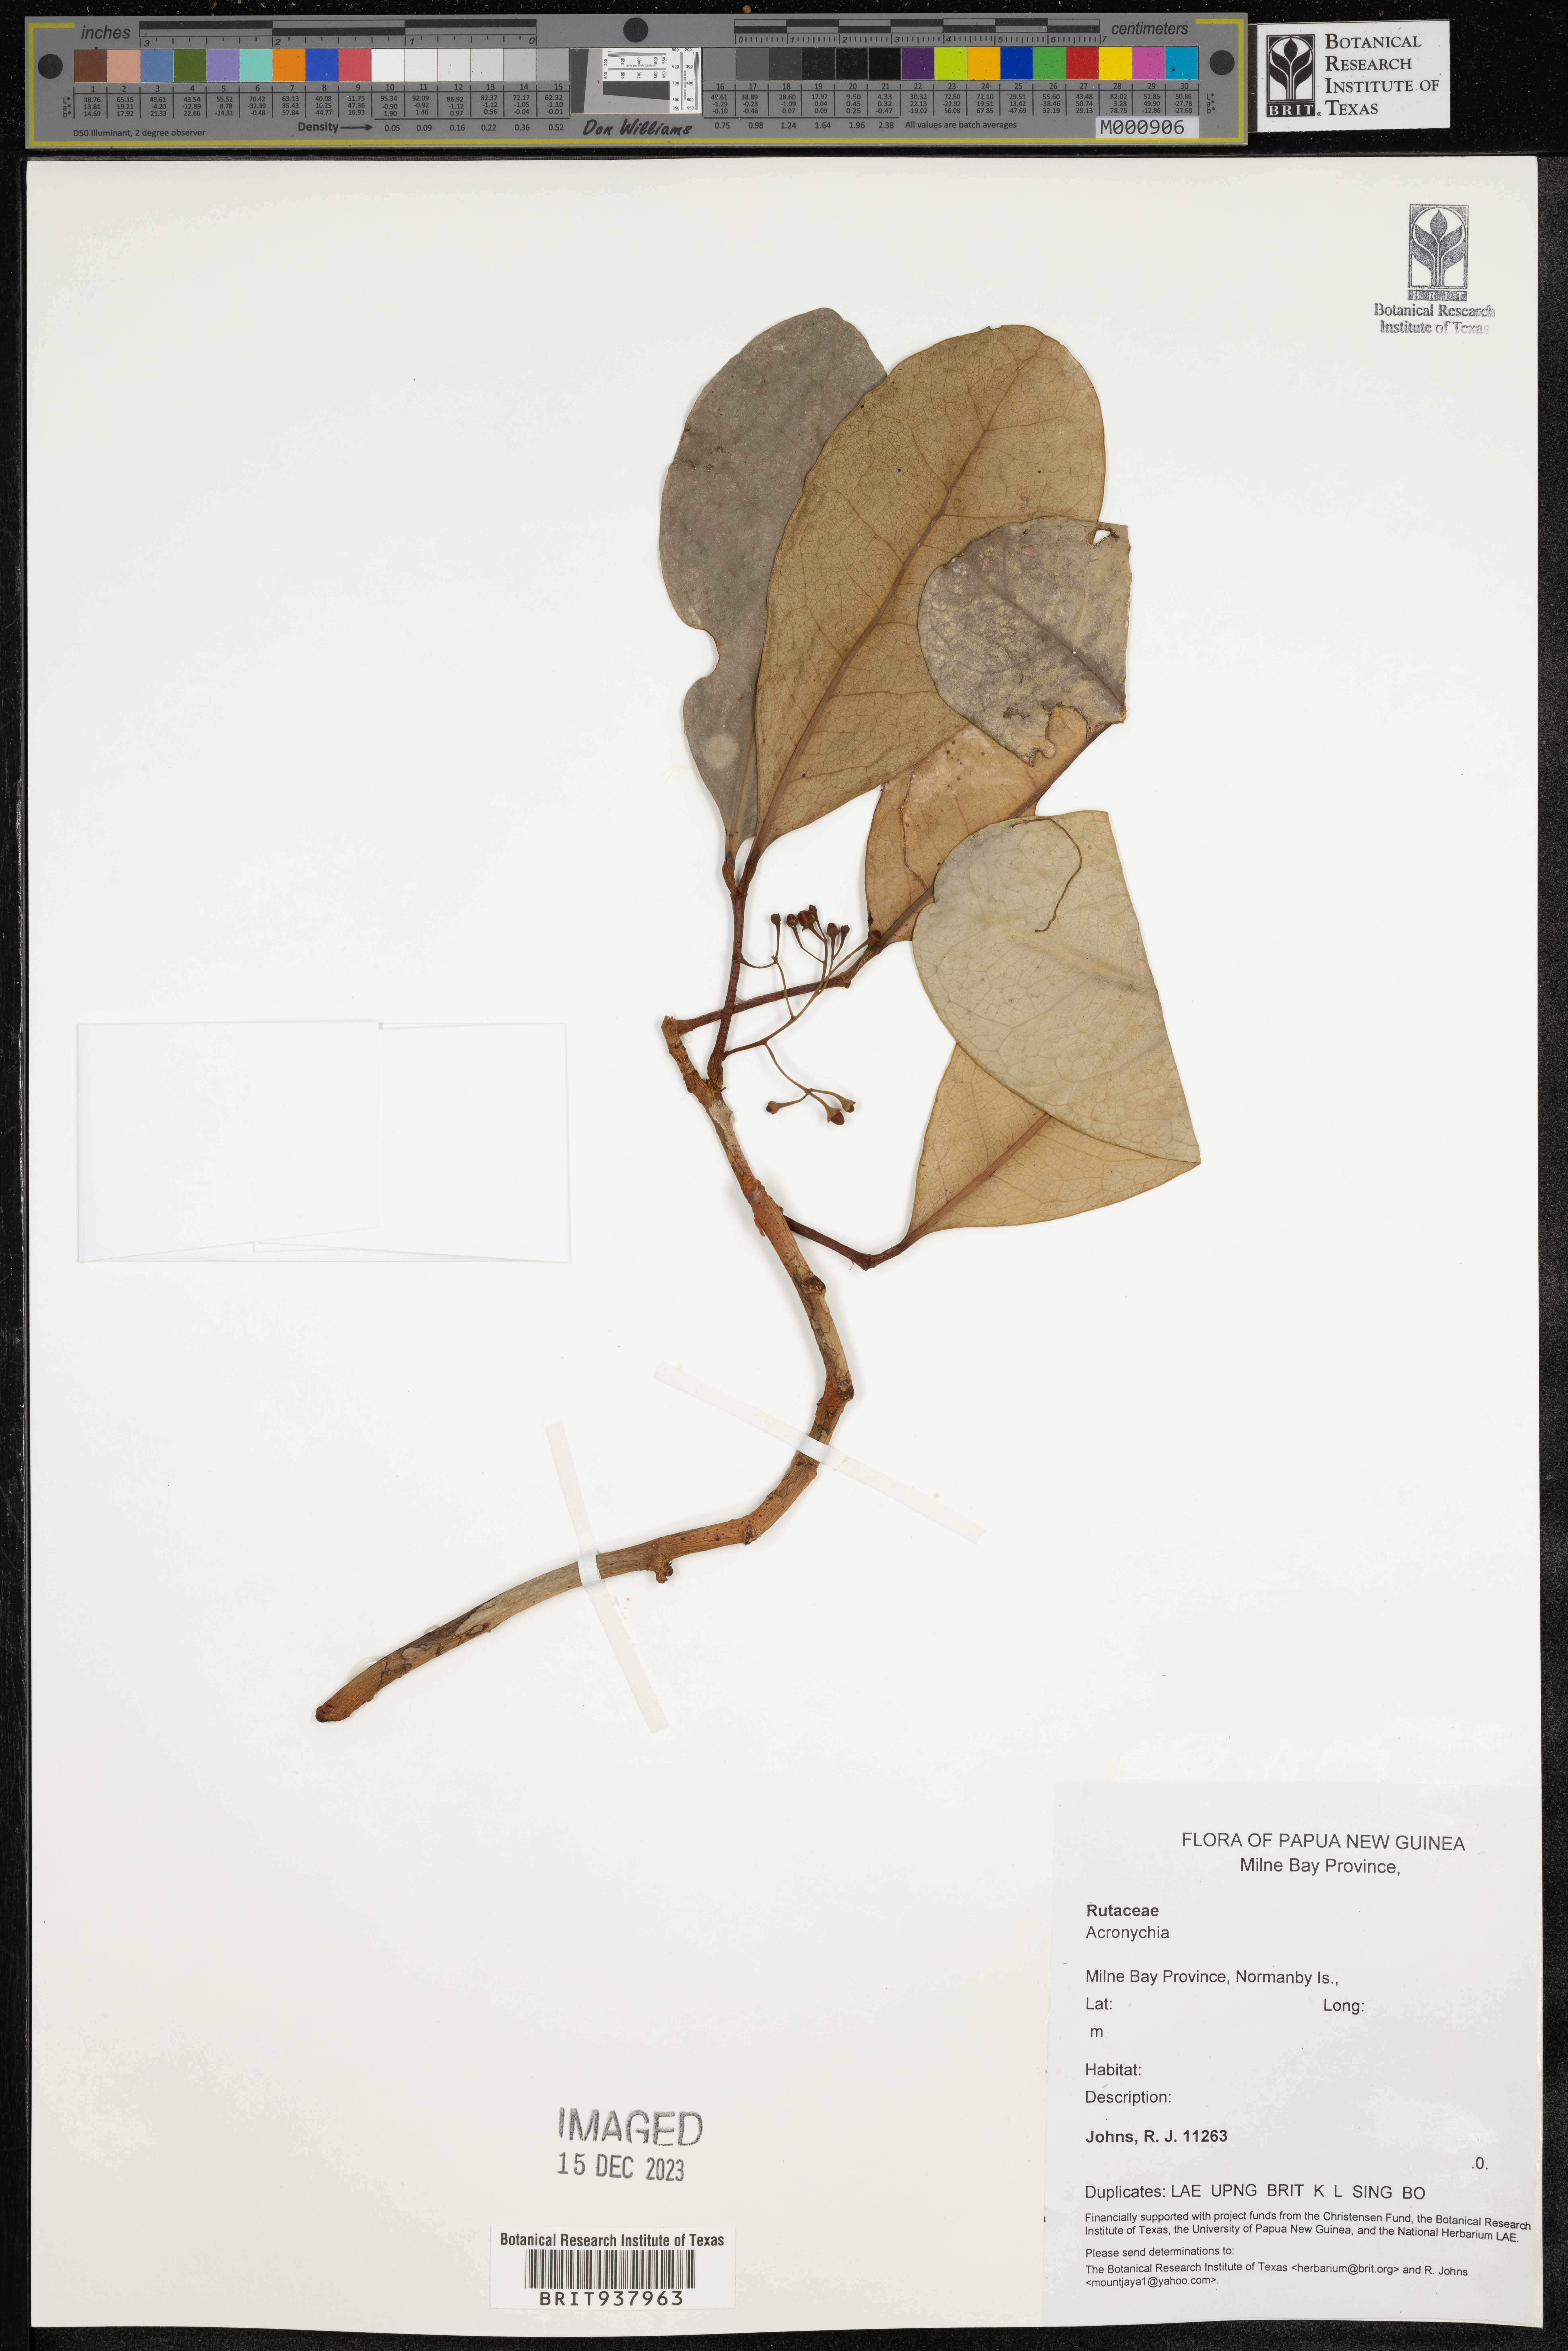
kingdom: Plantae
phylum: Tracheophyta
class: Magnoliopsida
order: Sapindales
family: Rutaceae
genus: Acronychia
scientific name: Acronychia
